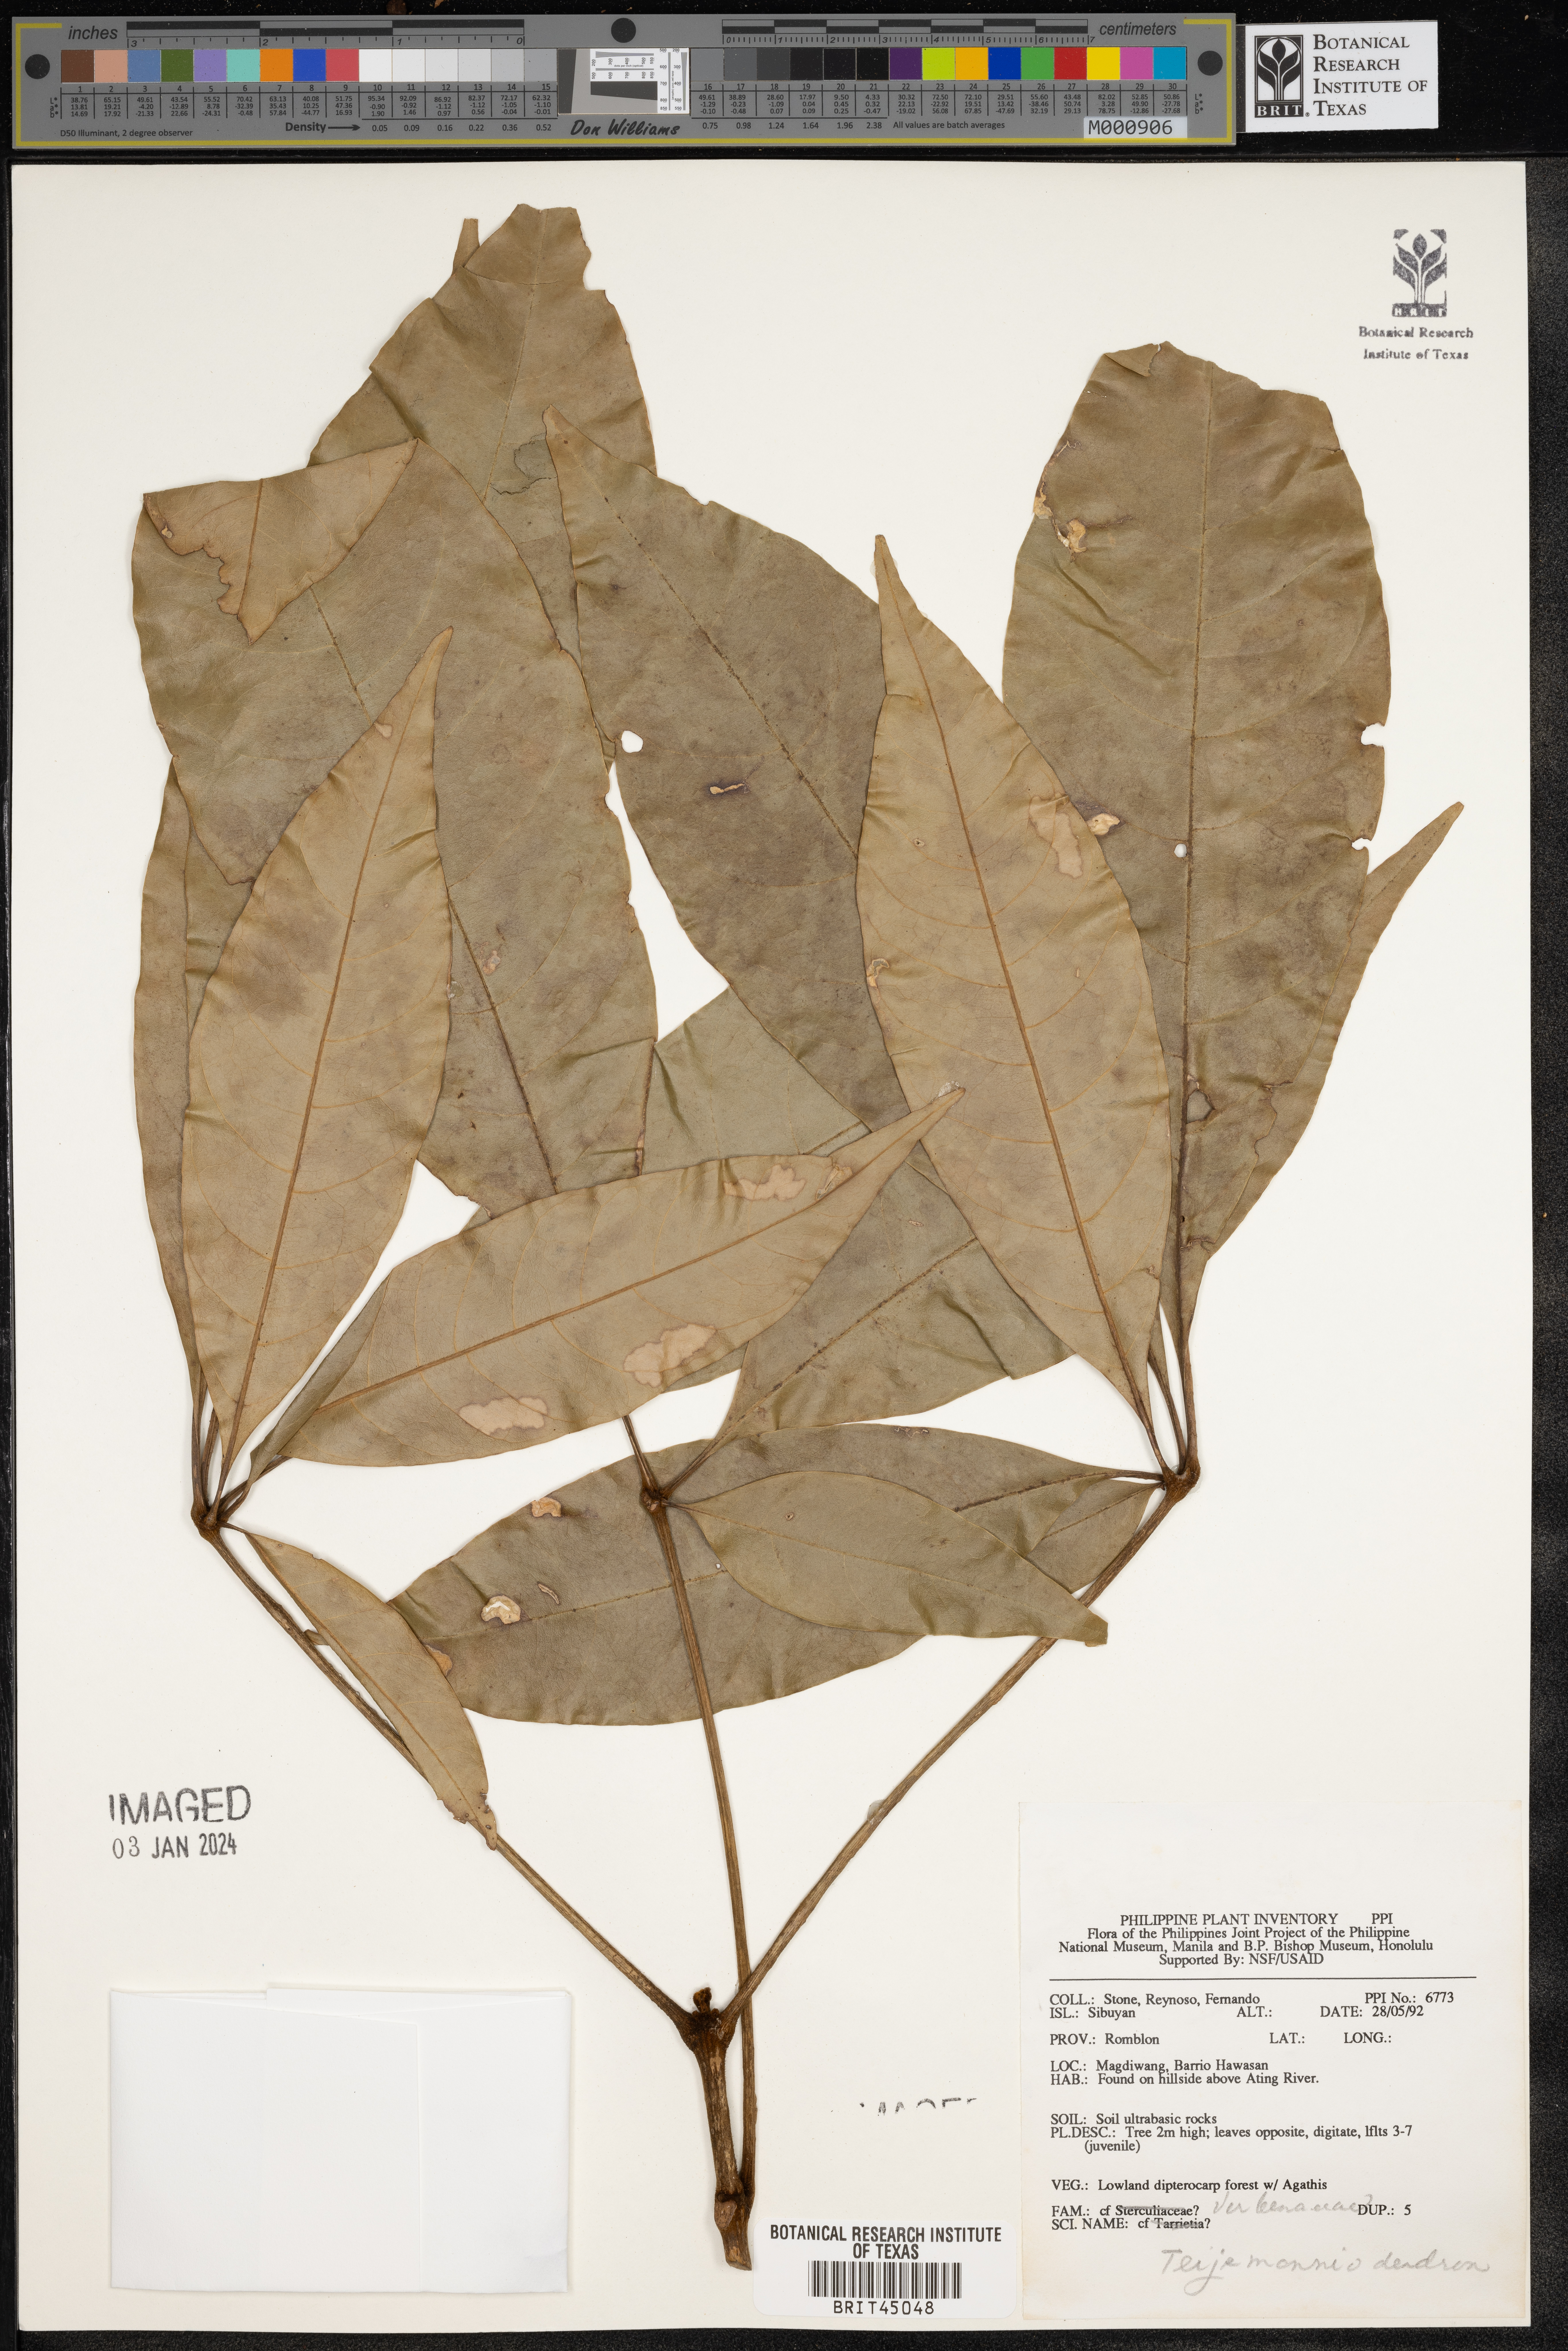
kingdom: Plantae
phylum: Tracheophyta
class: Magnoliopsida
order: Lamiales
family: Lamiaceae
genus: Teijsmanniodendron
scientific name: Teijsmanniodendron
